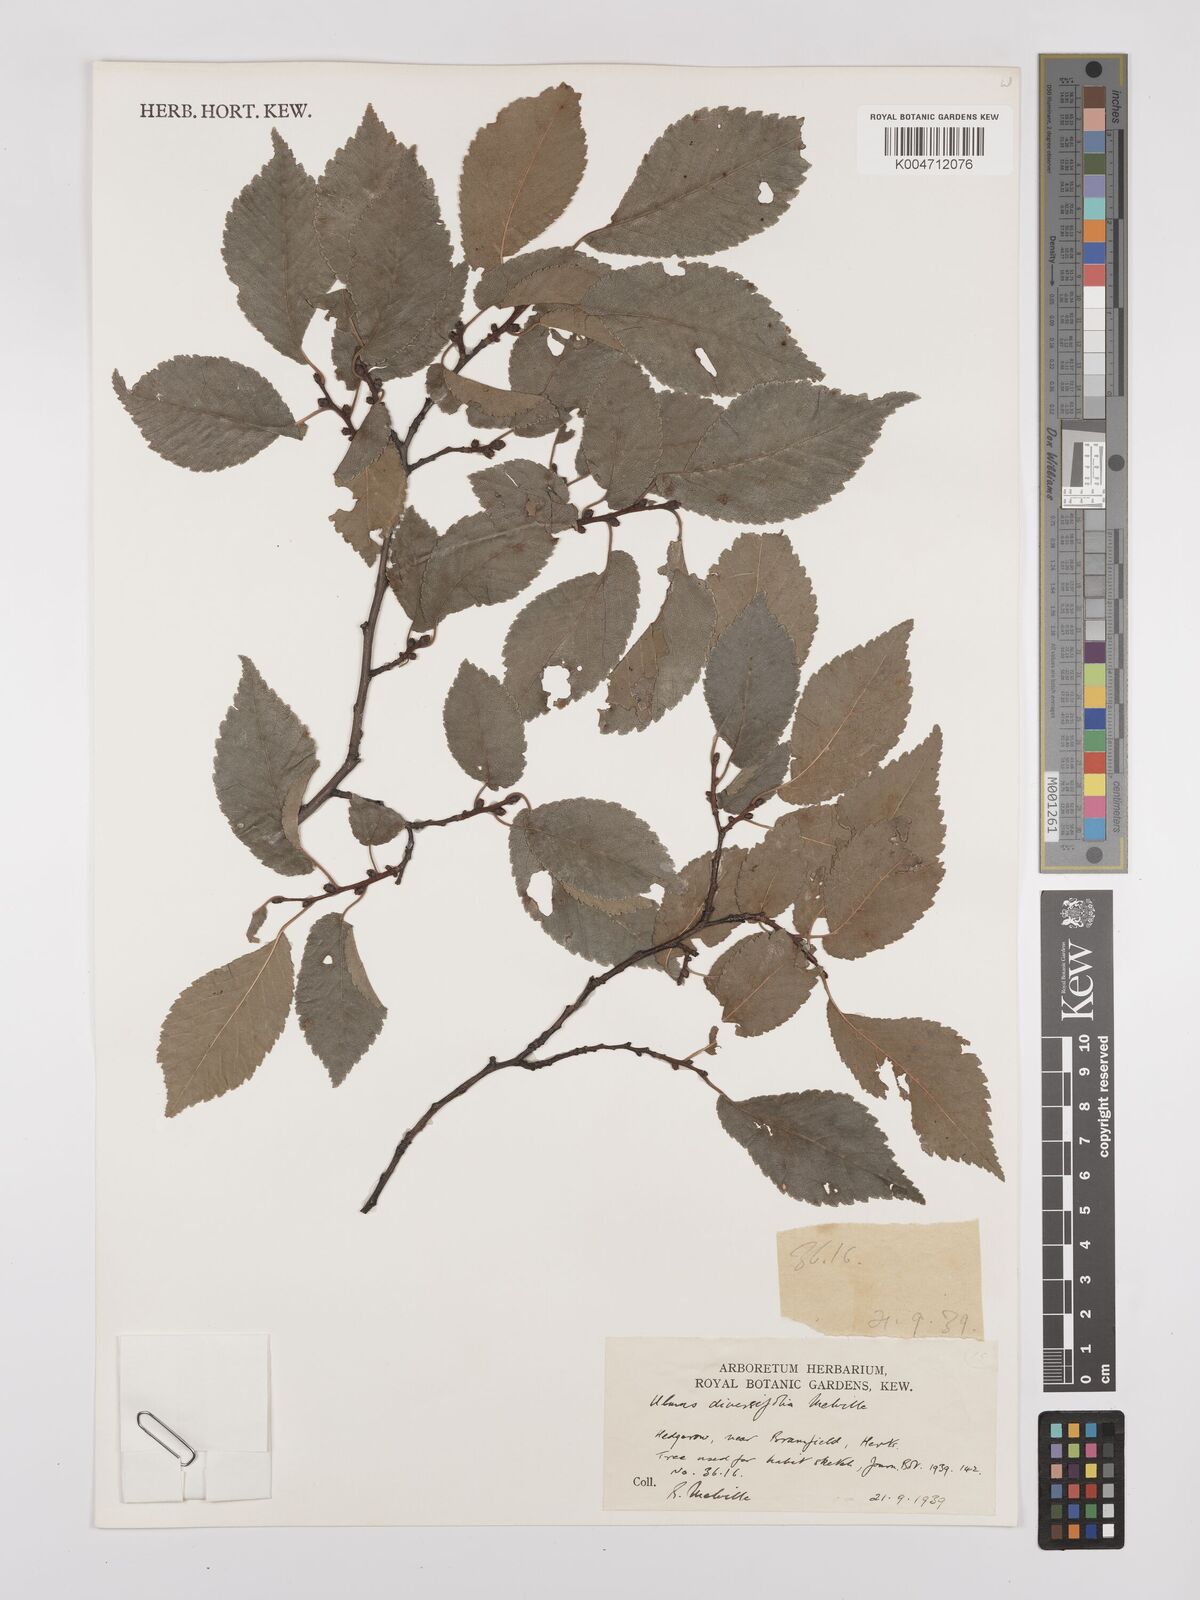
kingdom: Plantae
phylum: Tracheophyta
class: Magnoliopsida
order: Rosales
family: Ulmaceae
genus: Ulmus
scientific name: Ulmus minor
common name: Small-leaved elm
